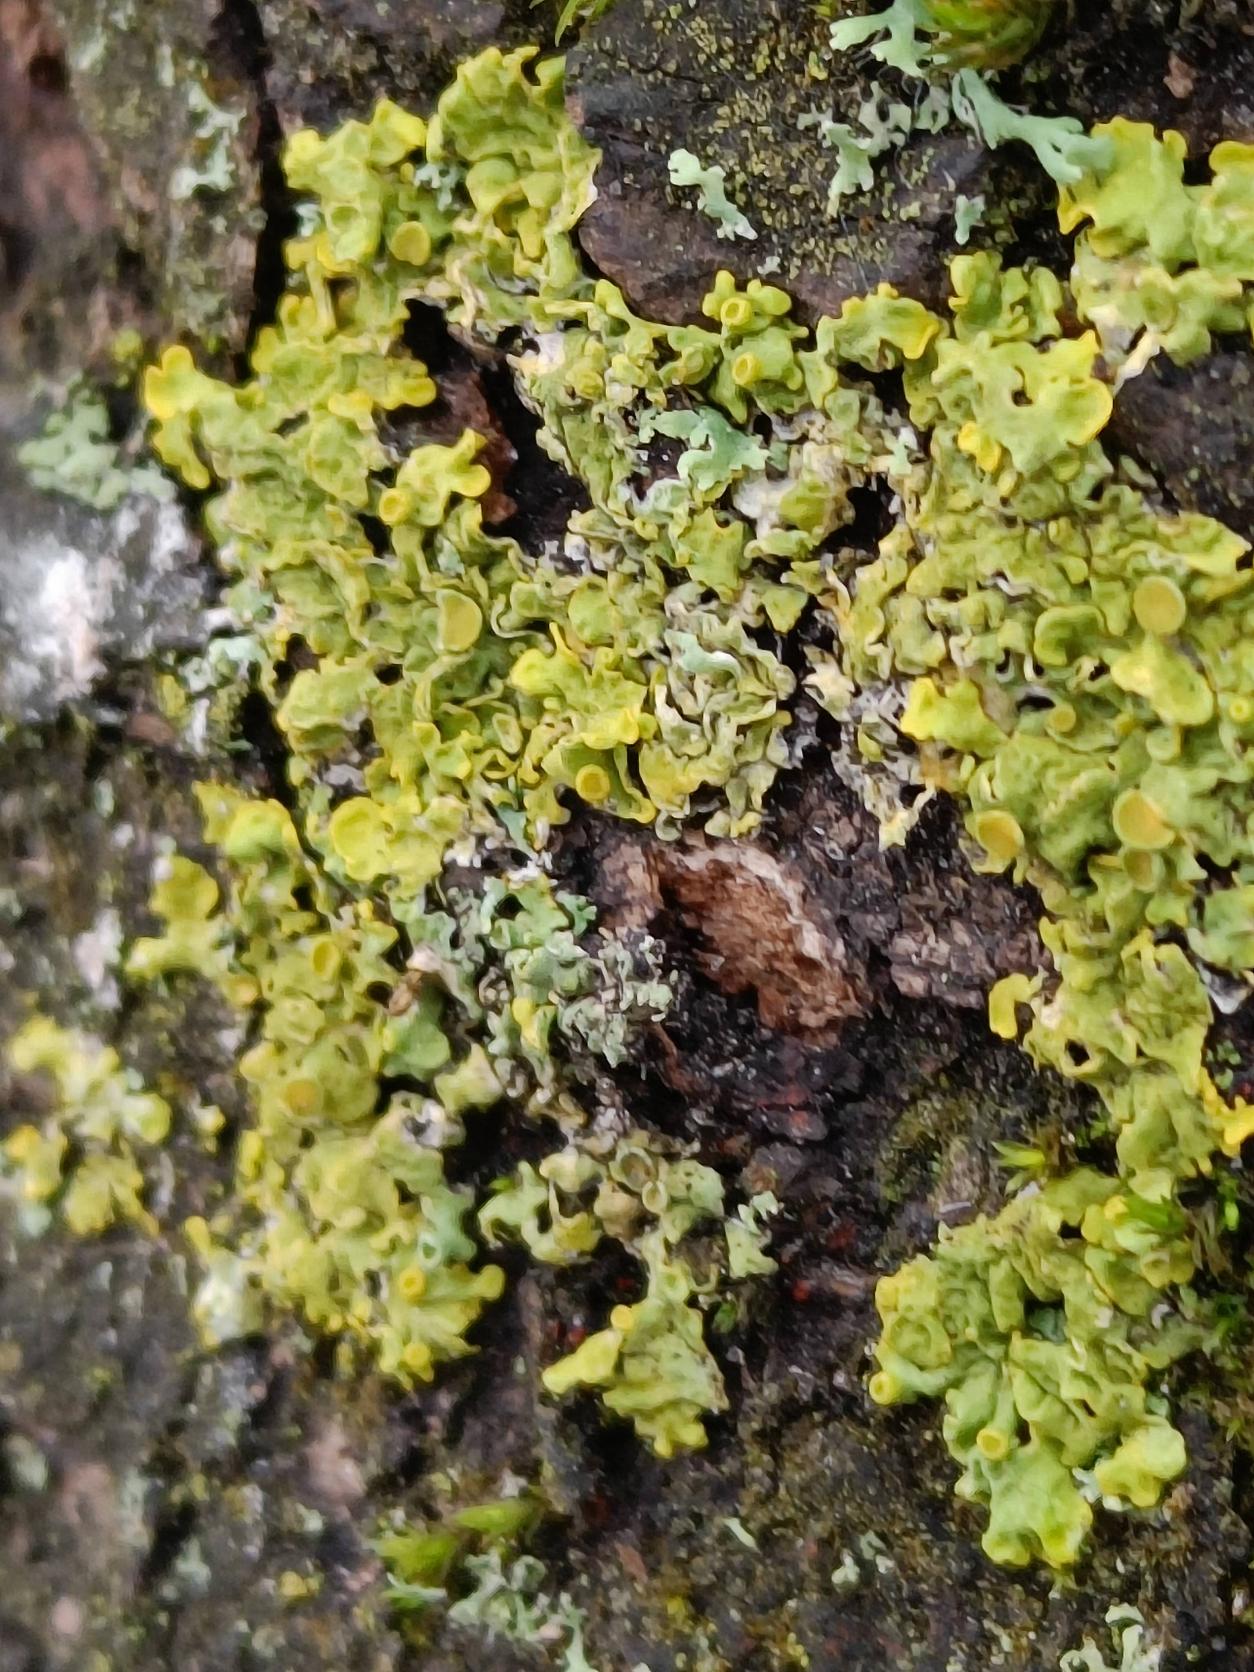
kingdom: Fungi
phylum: Ascomycota
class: Lecanoromycetes
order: Teloschistales
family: Teloschistaceae
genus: Xanthoria
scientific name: Xanthoria parietina
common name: Almindelig væggelav
